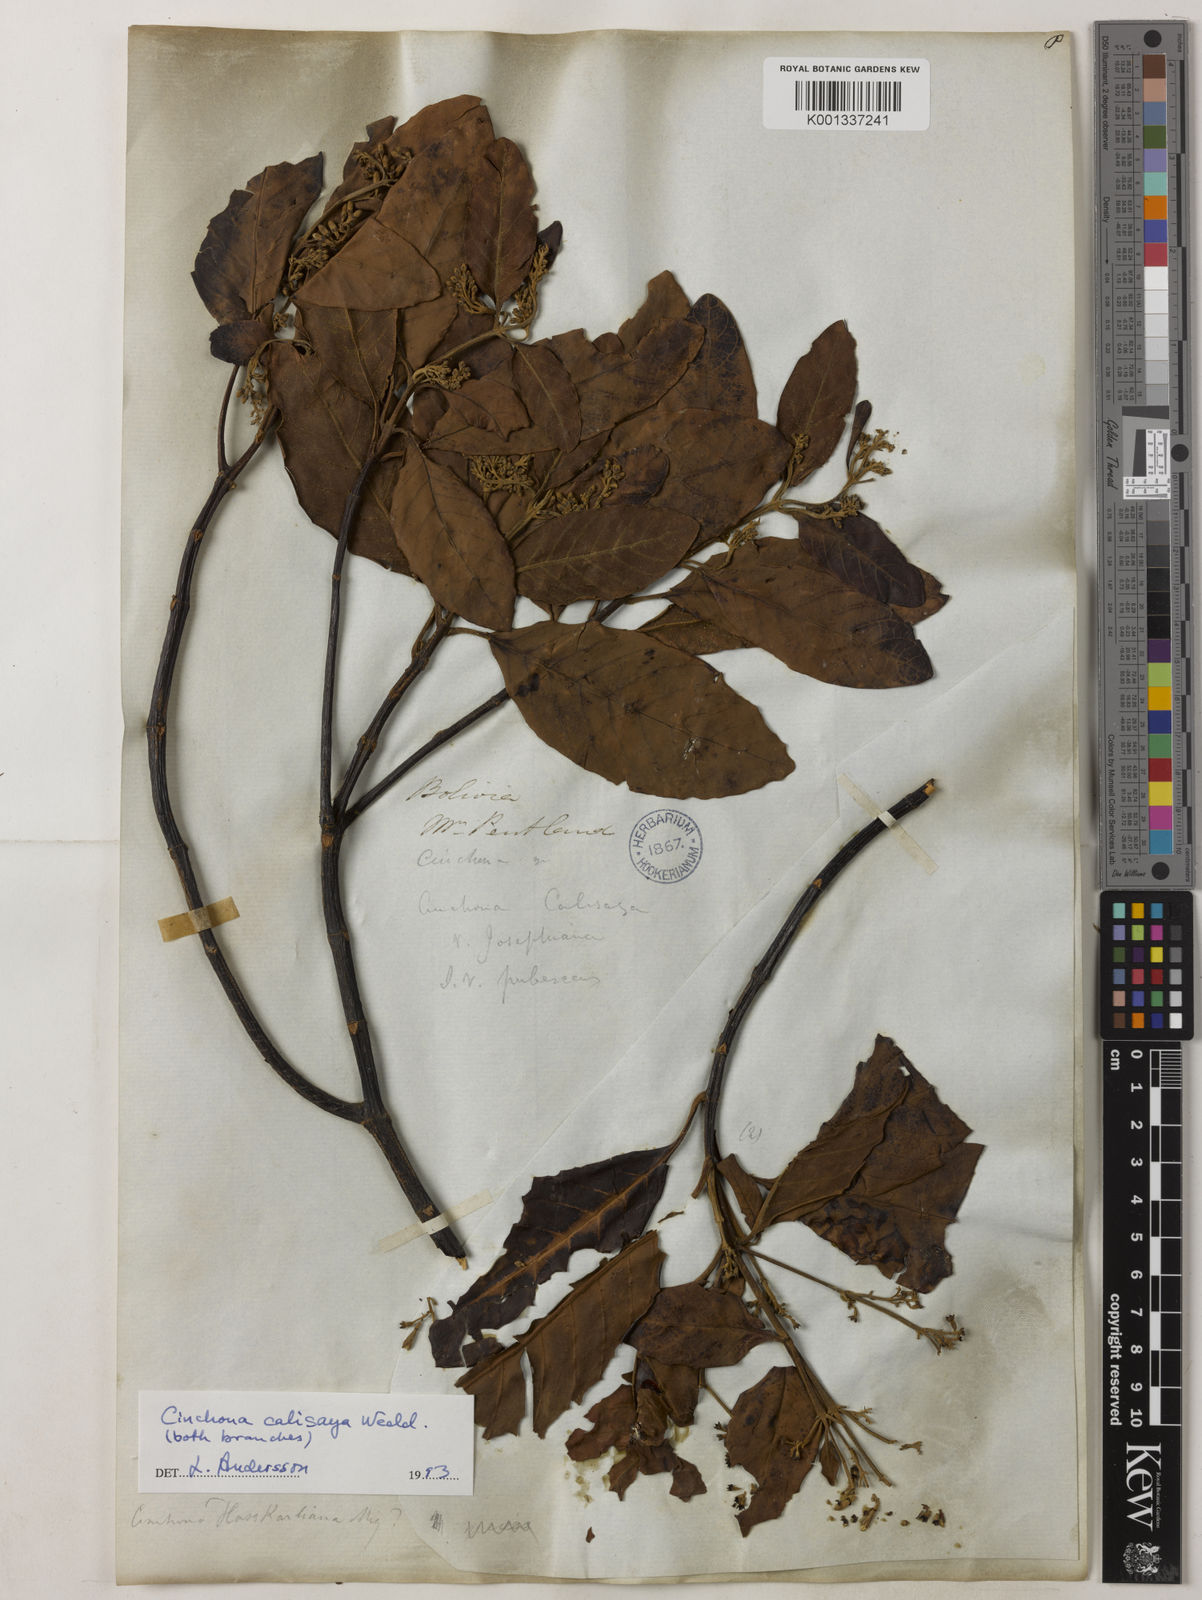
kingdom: Plantae
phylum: Tracheophyta
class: Magnoliopsida
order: Gentianales
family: Rubiaceae
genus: Cinchona
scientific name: Cinchona calisaya
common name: Ledgerbark
